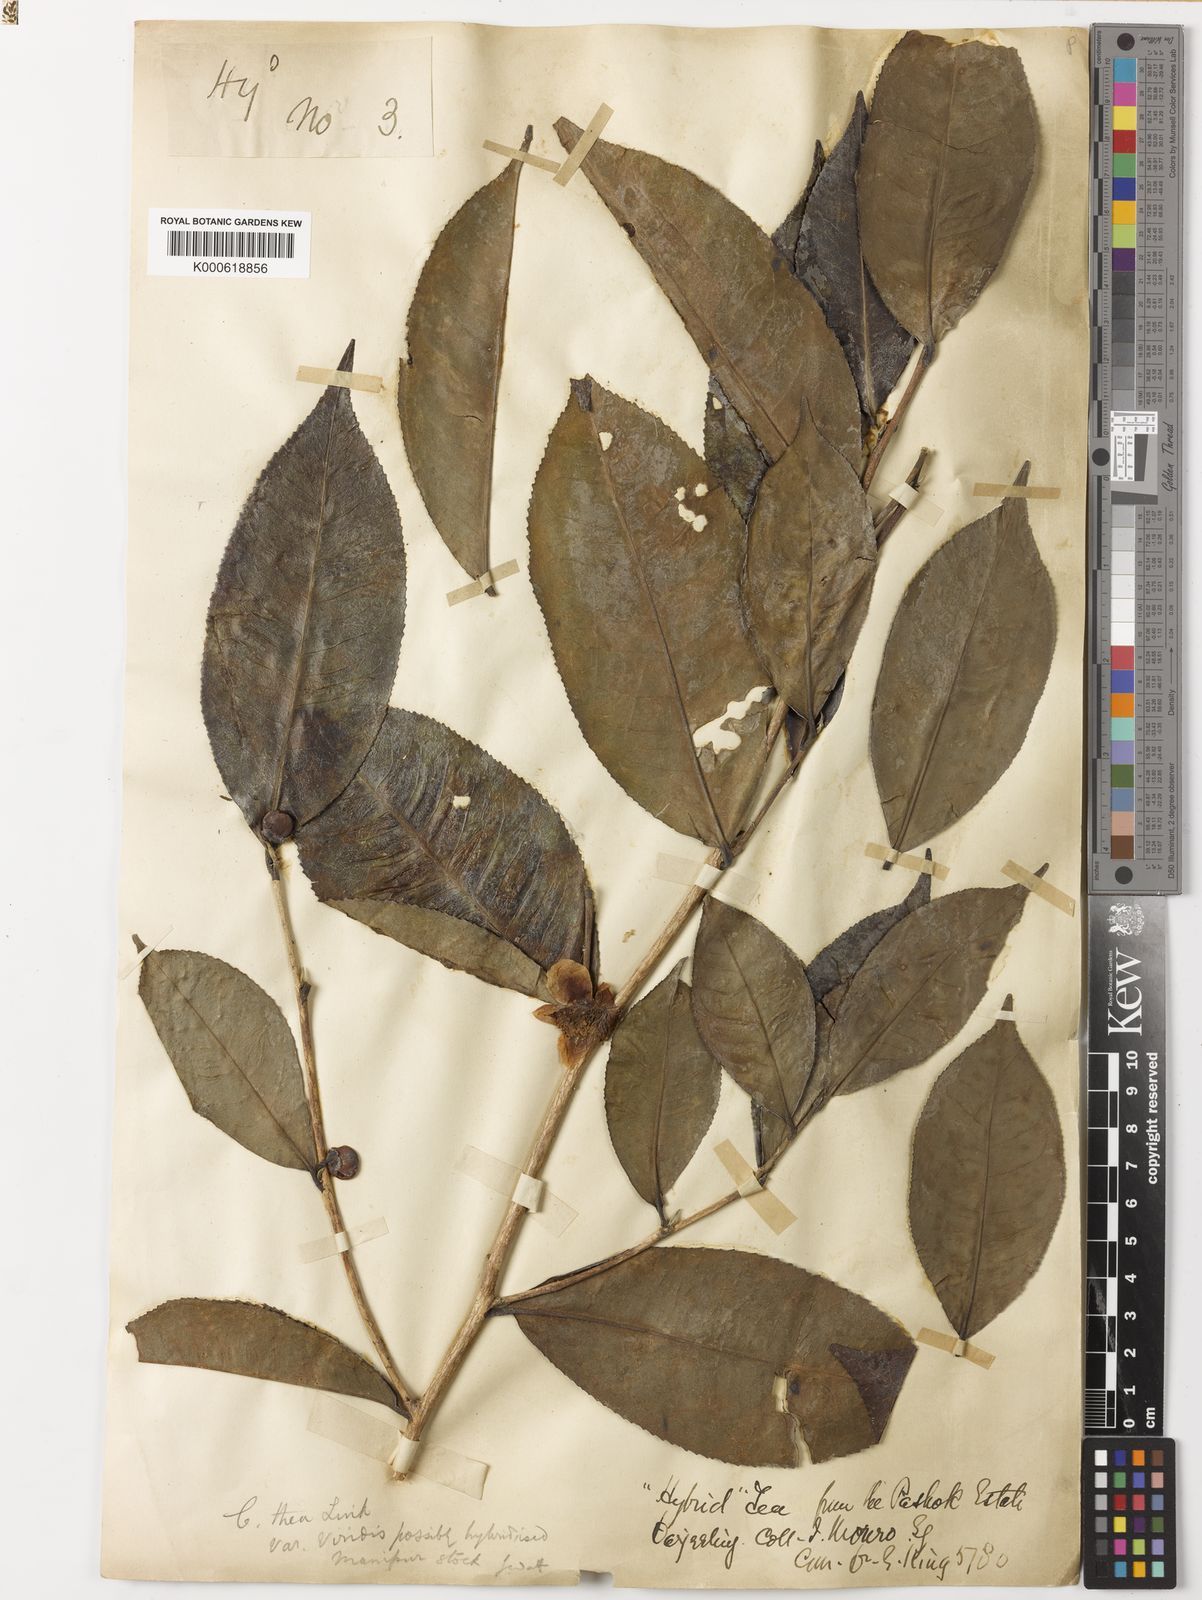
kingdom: Plantae
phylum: Tracheophyta
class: Magnoliopsida
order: Ericales
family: Theaceae
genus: Camellia
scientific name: Camellia sinensis
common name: Tea
